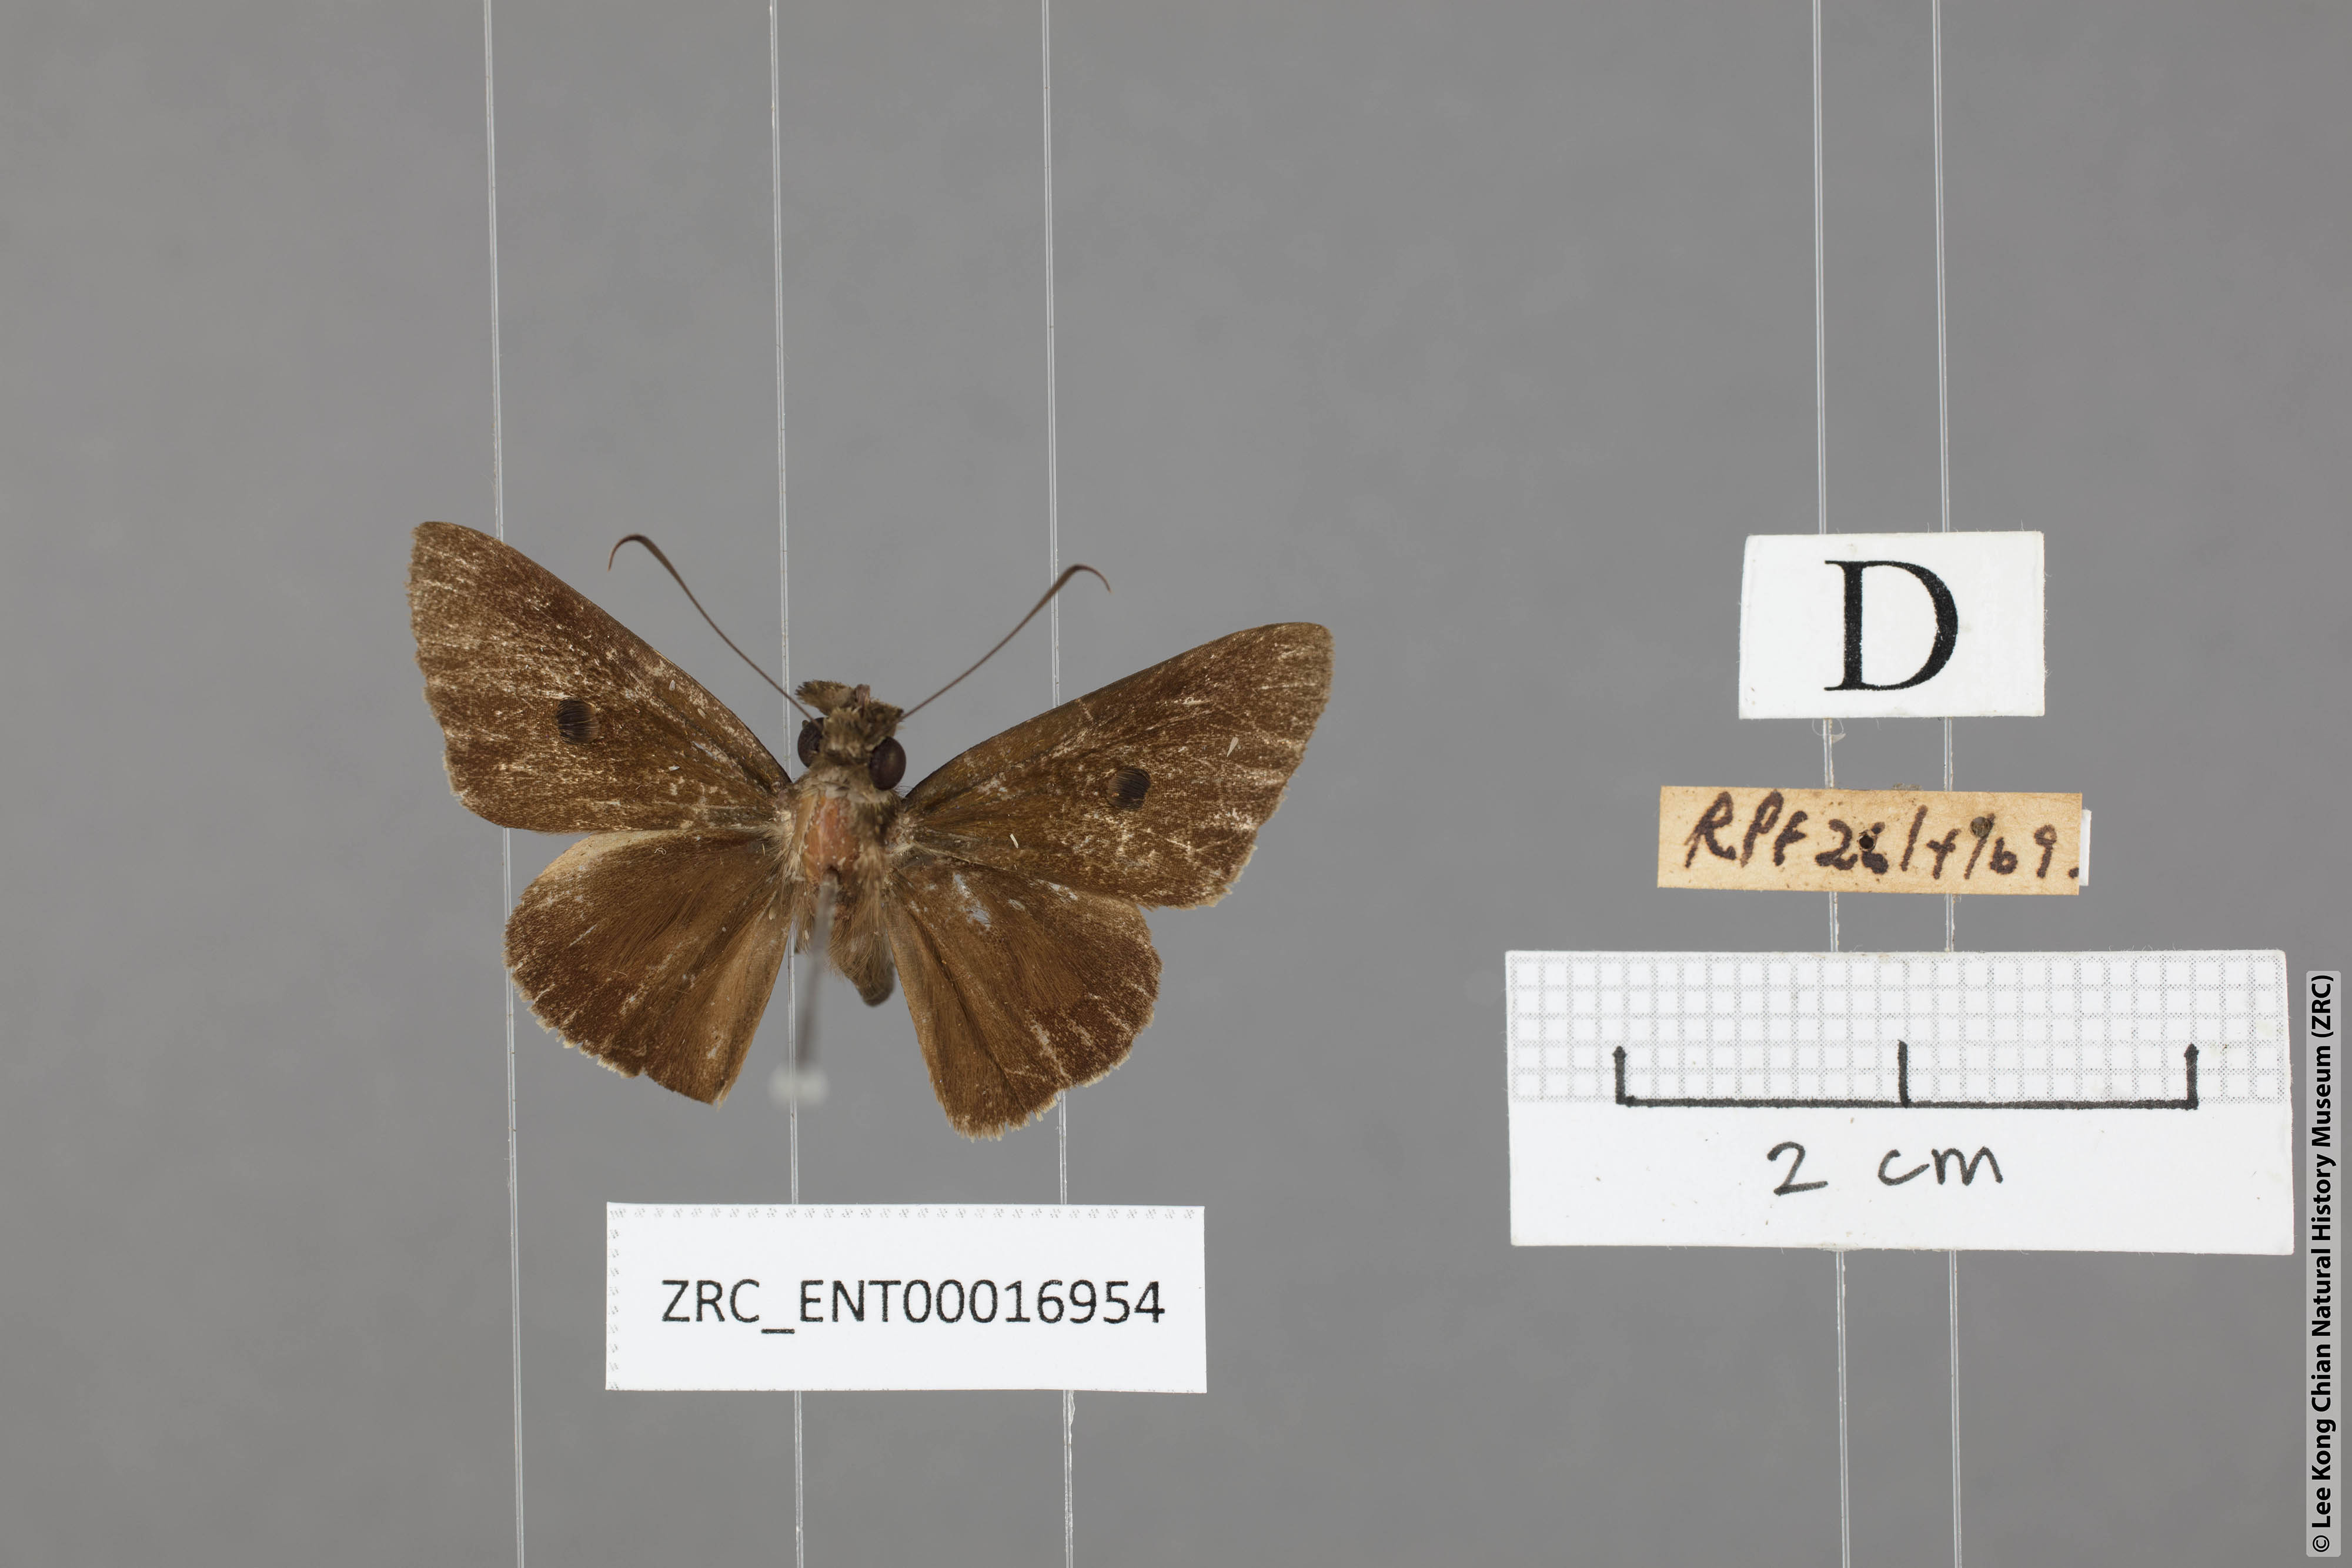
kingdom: Animalia
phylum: Arthropoda
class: Insecta
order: Lepidoptera
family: Hesperiidae
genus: Ge
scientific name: Ge
